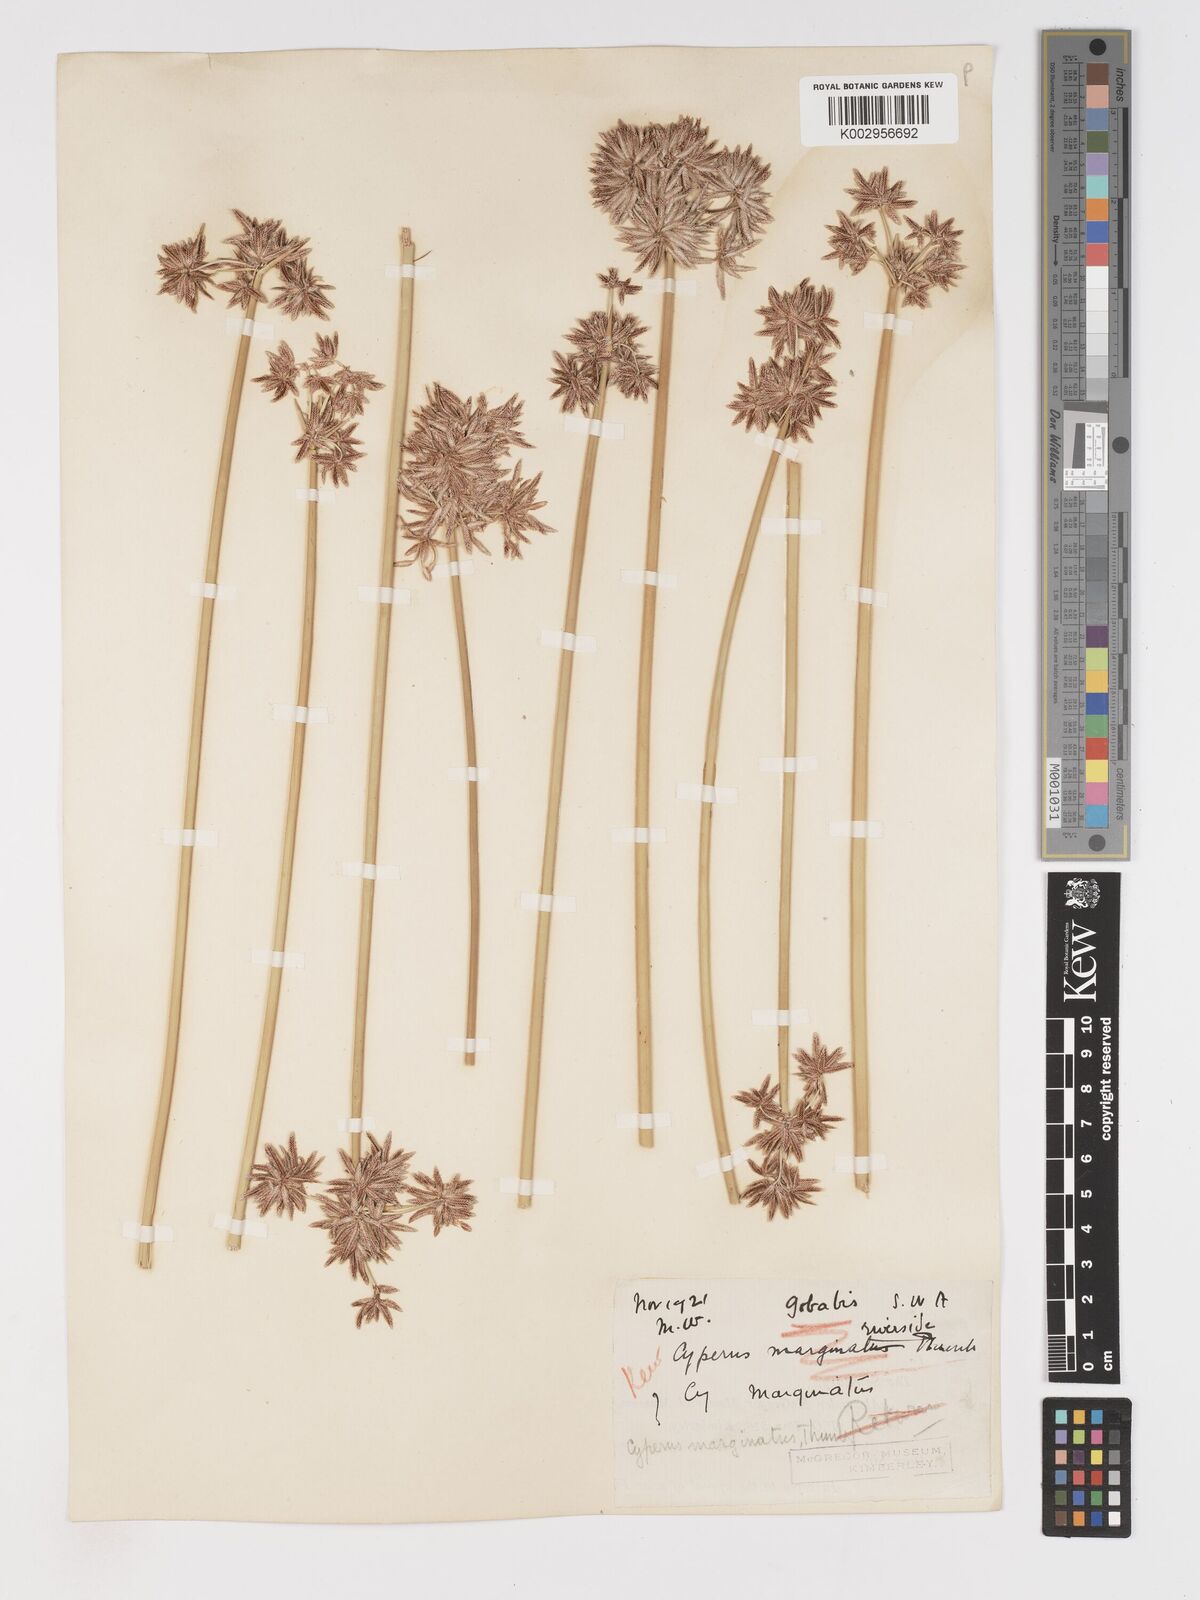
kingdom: Plantae
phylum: Tracheophyta
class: Liliopsida
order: Poales
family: Cyperaceae
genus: Cyperus
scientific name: Cyperus marginatus
